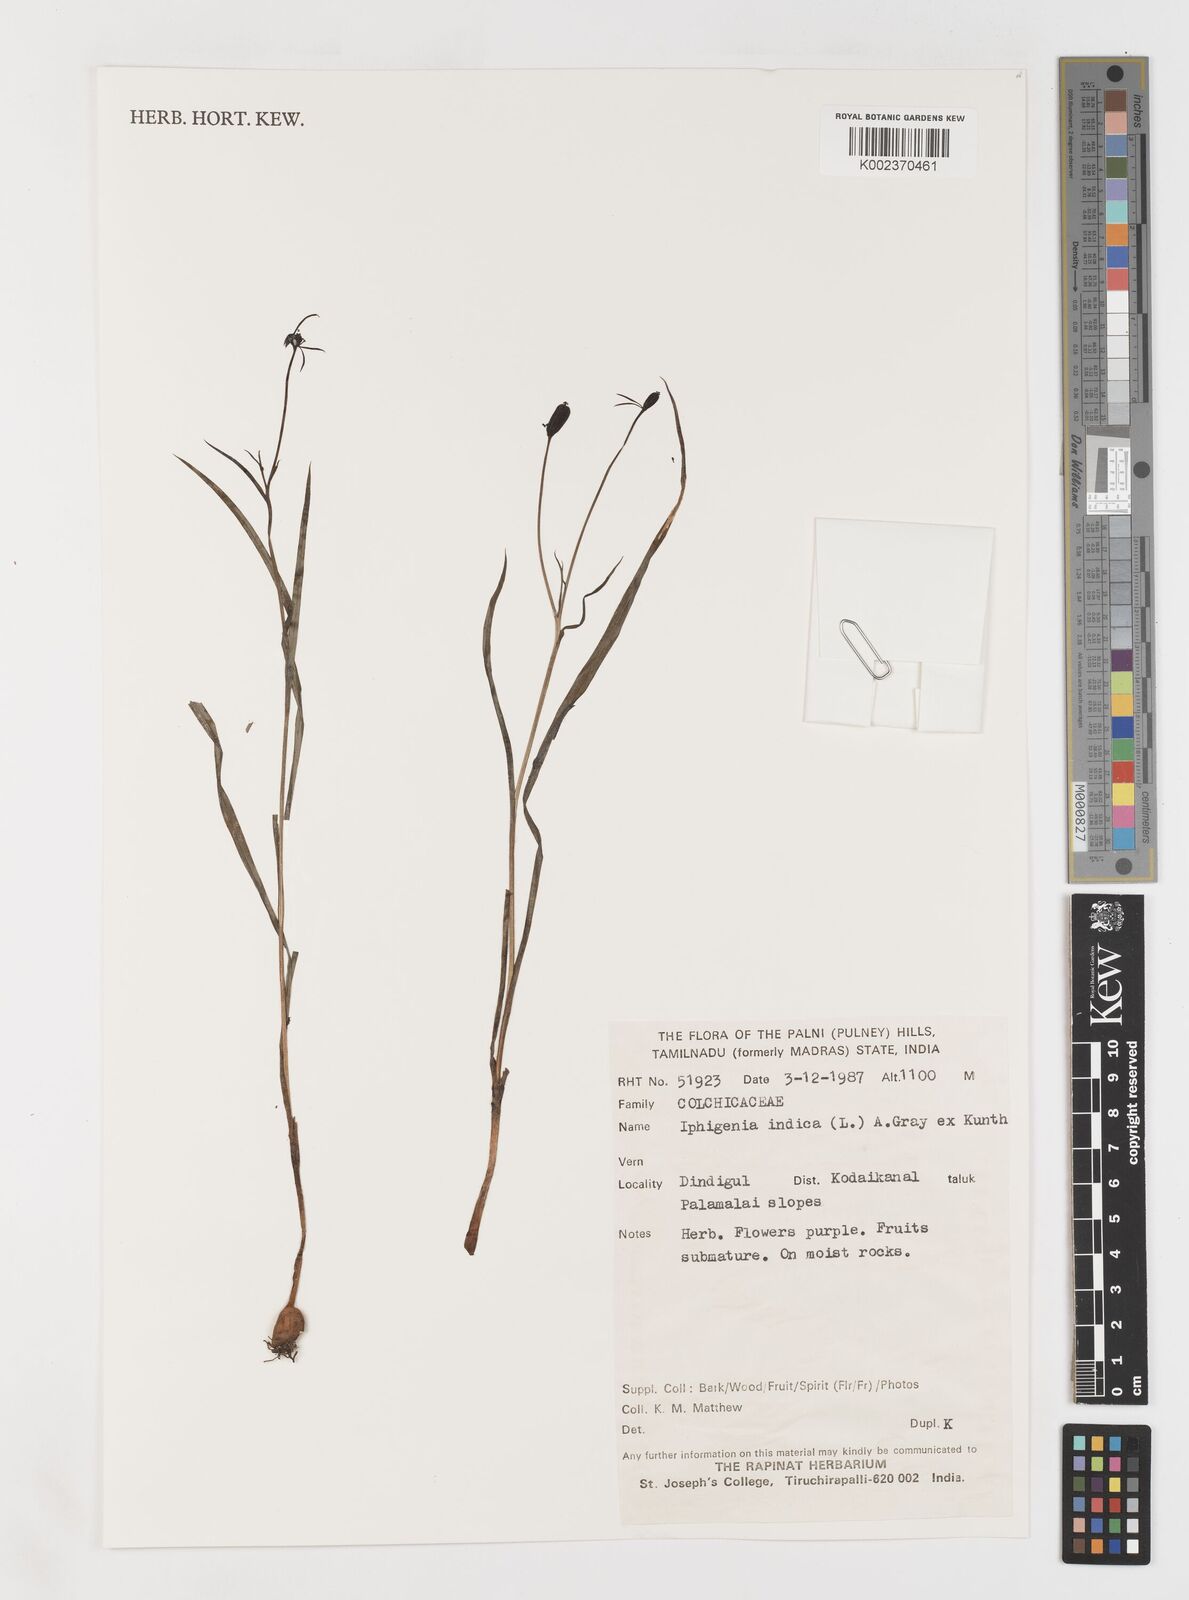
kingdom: Plantae
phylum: Tracheophyta
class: Liliopsida
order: Liliales
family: Colchicaceae
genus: Iphigenia
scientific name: Iphigenia indica
